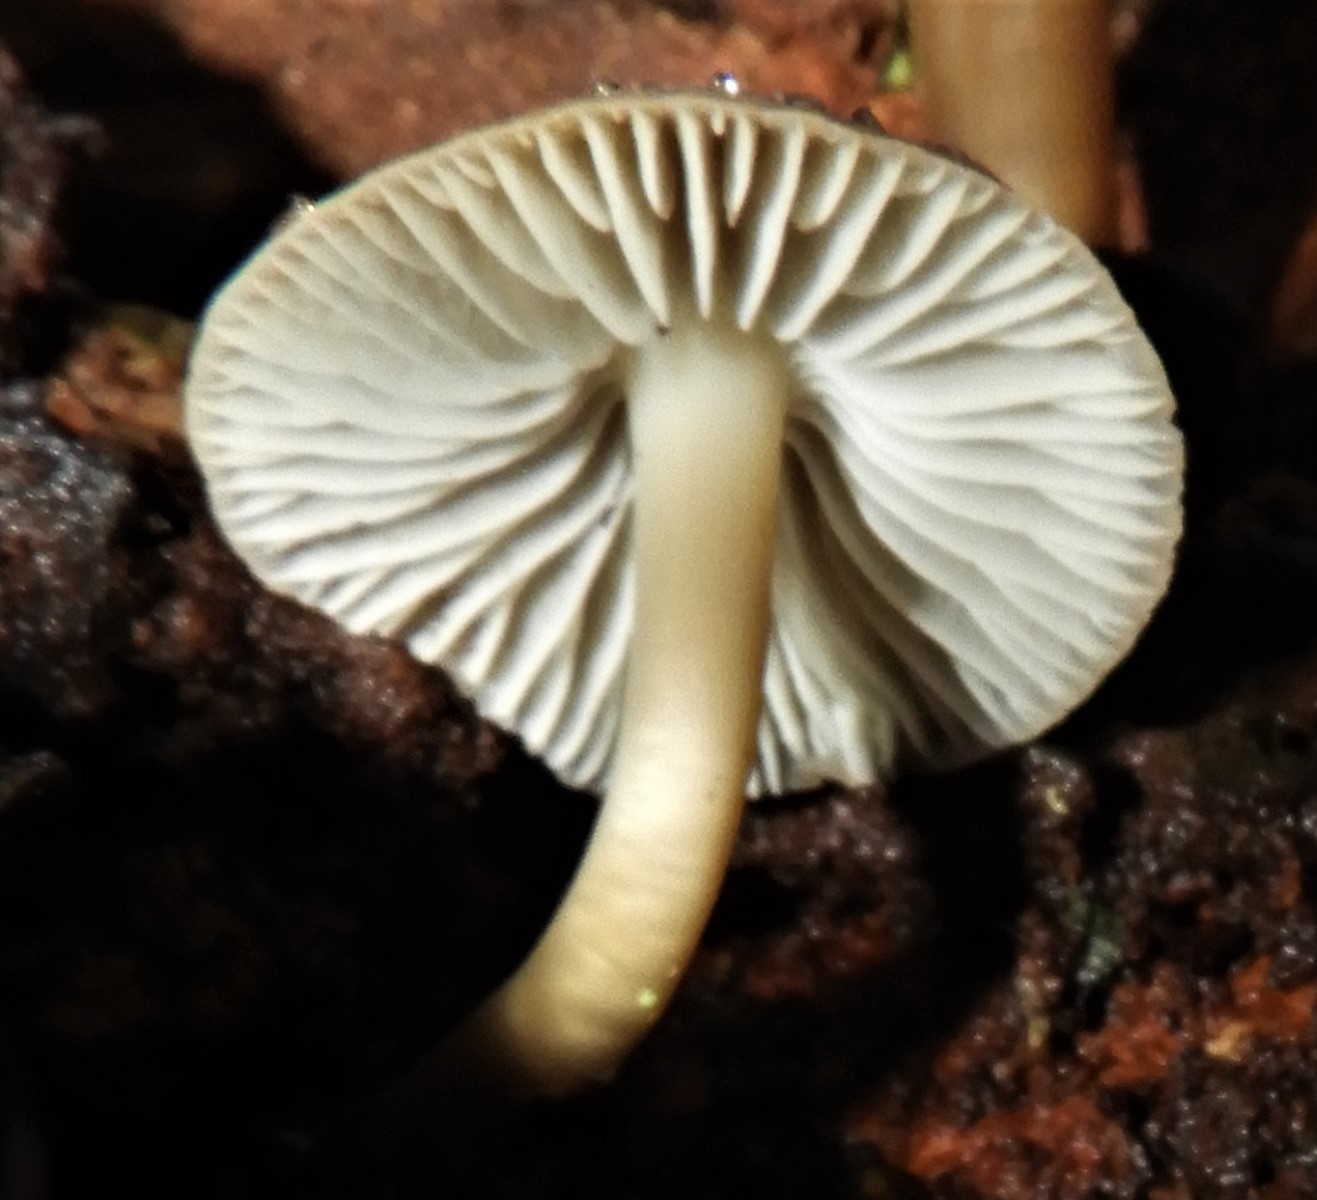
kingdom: Fungi
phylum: Basidiomycota
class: Agaricomycetes
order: Agaricales
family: Mycenaceae
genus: Mycena
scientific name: Mycena galericulata
